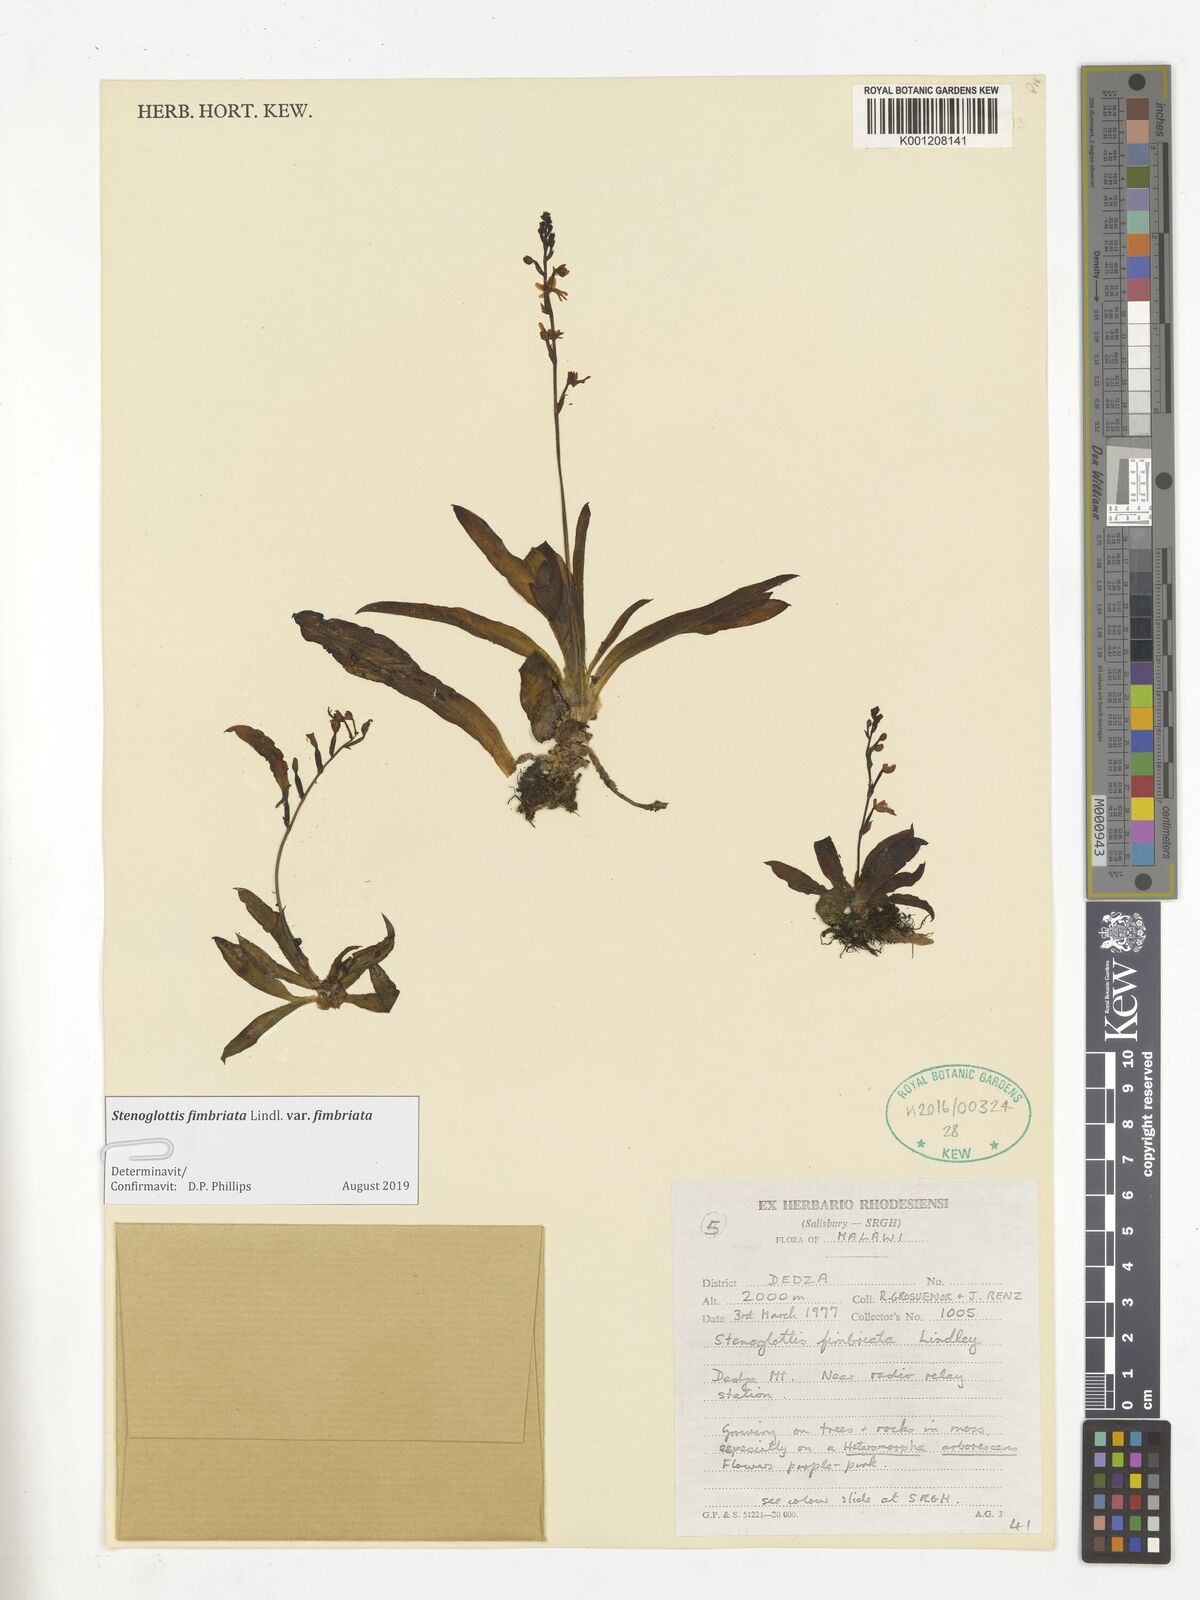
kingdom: Plantae
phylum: Tracheophyta
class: Liliopsida
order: Asparagales
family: Orchidaceae
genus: Stenoglottis
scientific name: Stenoglottis fimbriata
